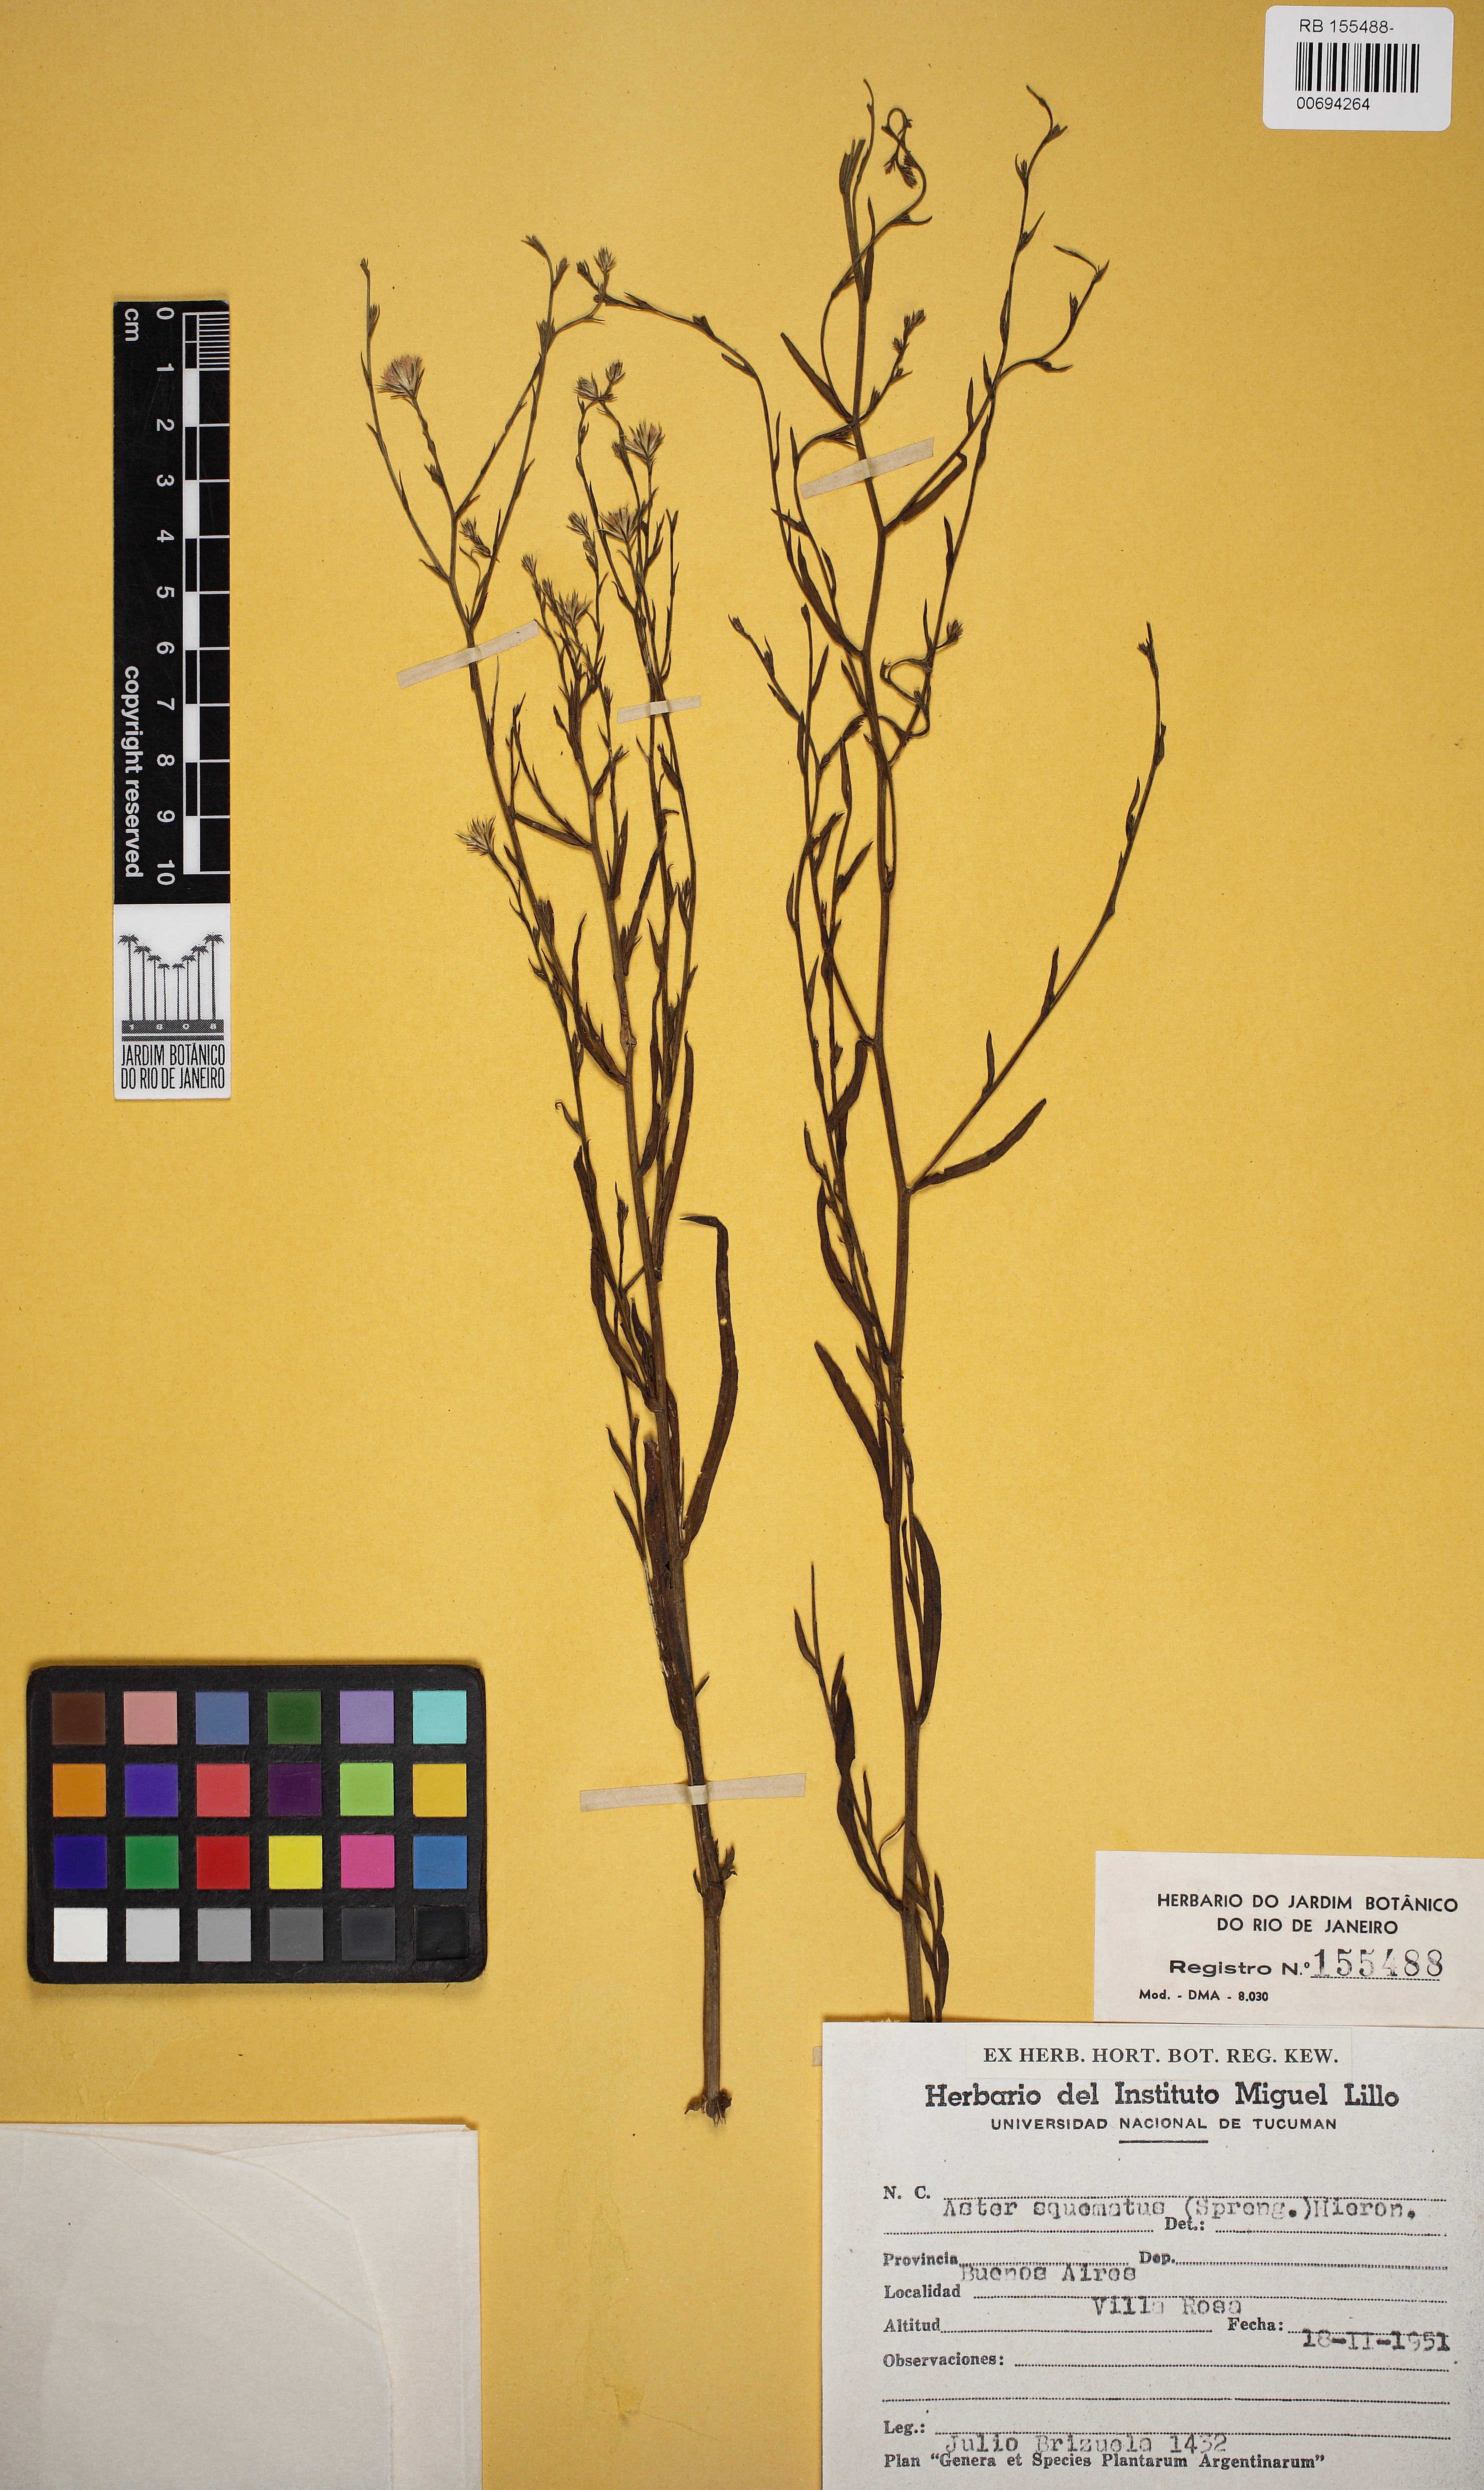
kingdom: Plantae
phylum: Tracheophyta
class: Magnoliopsida
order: Asterales
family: Asteraceae
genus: Symphyotrichum
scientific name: Symphyotrichum squamatum
